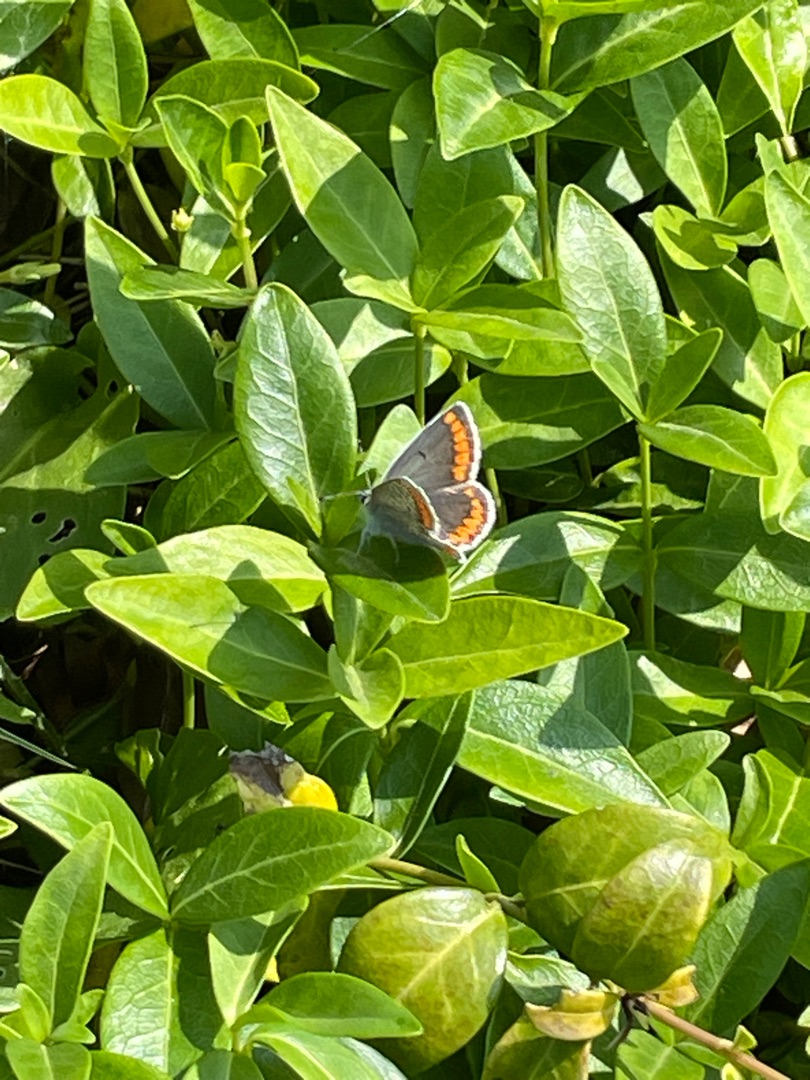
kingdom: Animalia
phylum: Arthropoda
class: Insecta
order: Lepidoptera
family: Lycaenidae
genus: Aricia
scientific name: Aricia agestis
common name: Rødplettet blåfugl
